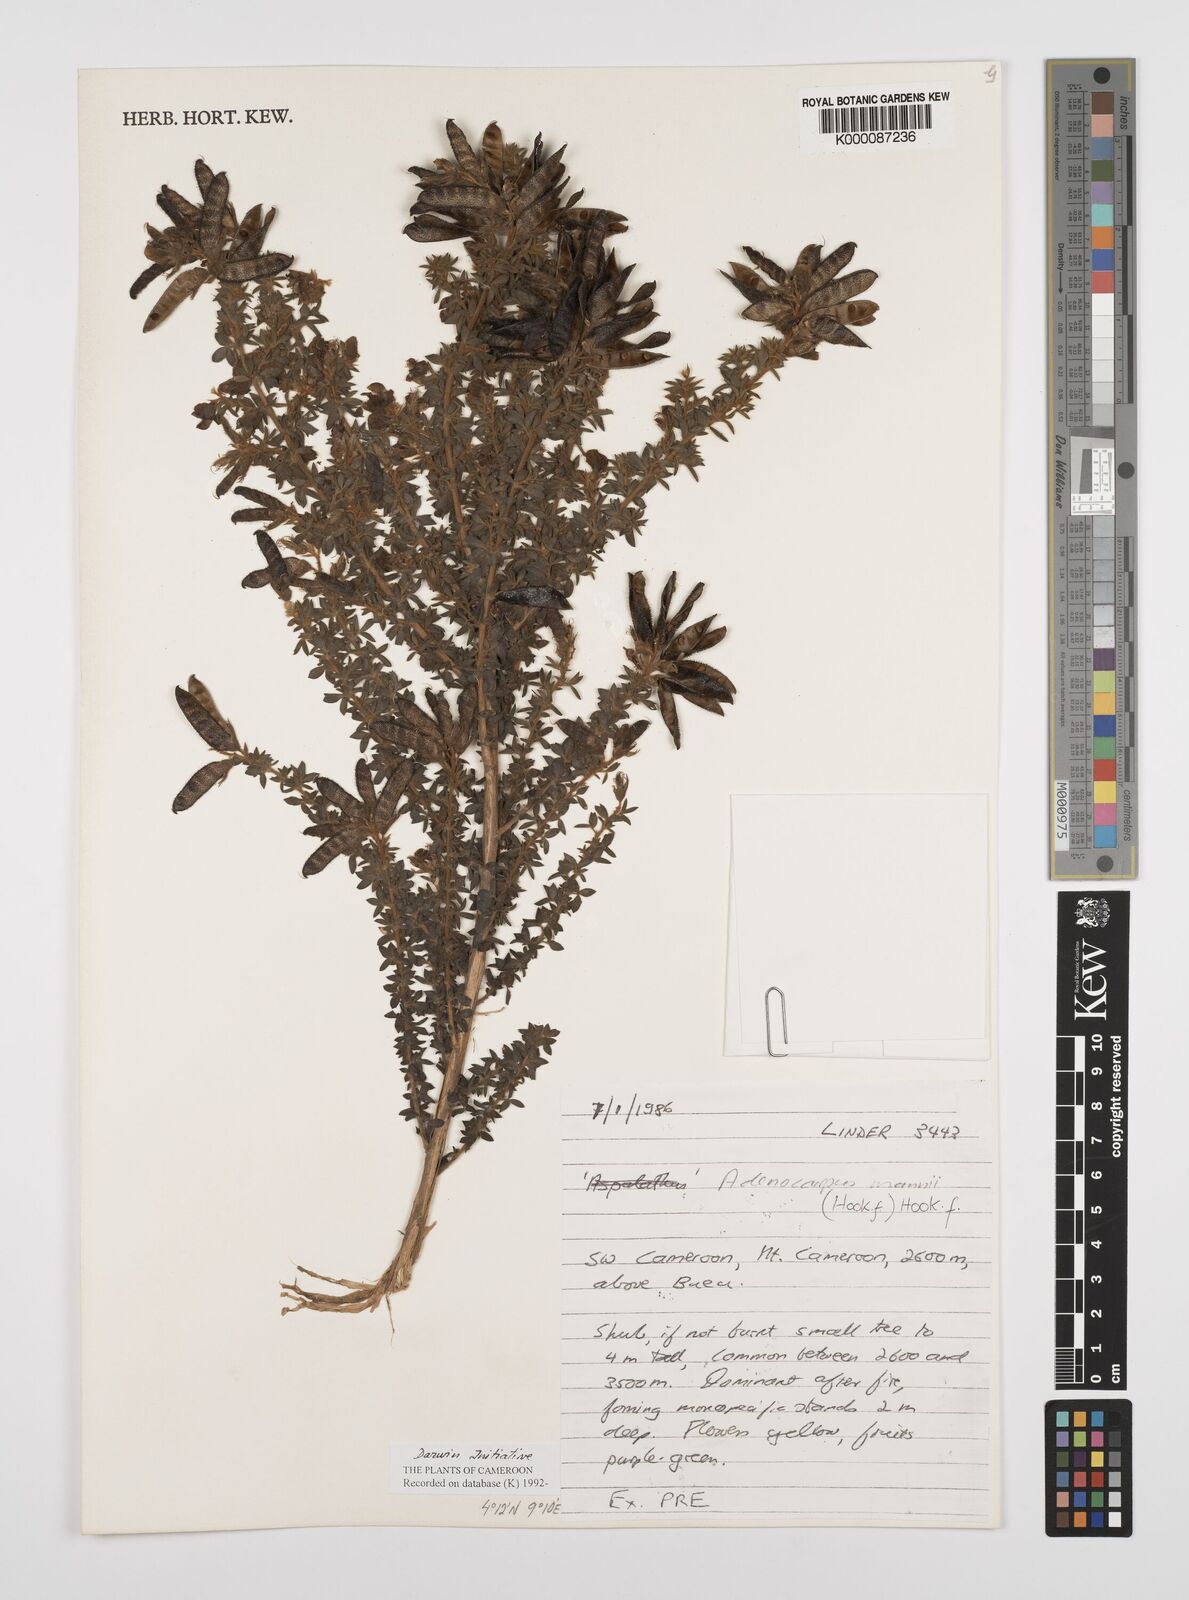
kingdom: Plantae
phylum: Tracheophyta
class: Magnoliopsida
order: Fabales
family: Fabaceae
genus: Adenocarpus
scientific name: Adenocarpus mannii
